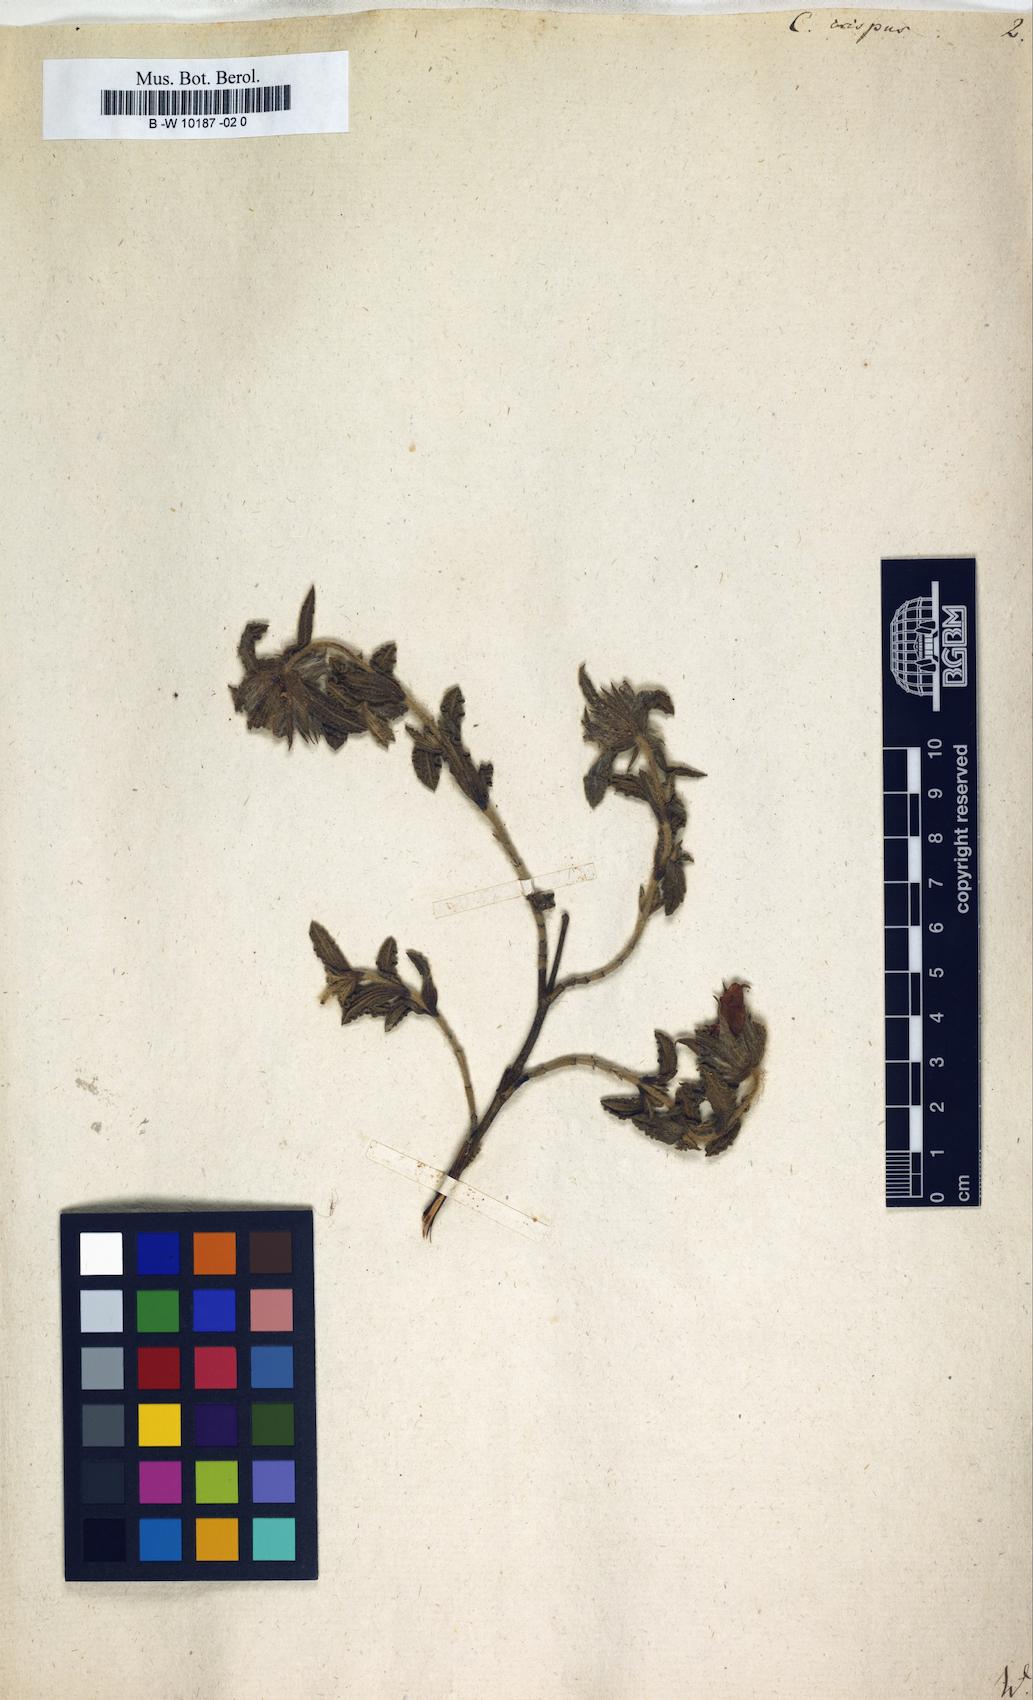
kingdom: Plantae
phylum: Tracheophyta
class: Magnoliopsida
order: Malvales
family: Cistaceae
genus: Cistus
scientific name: Cistus crispus
